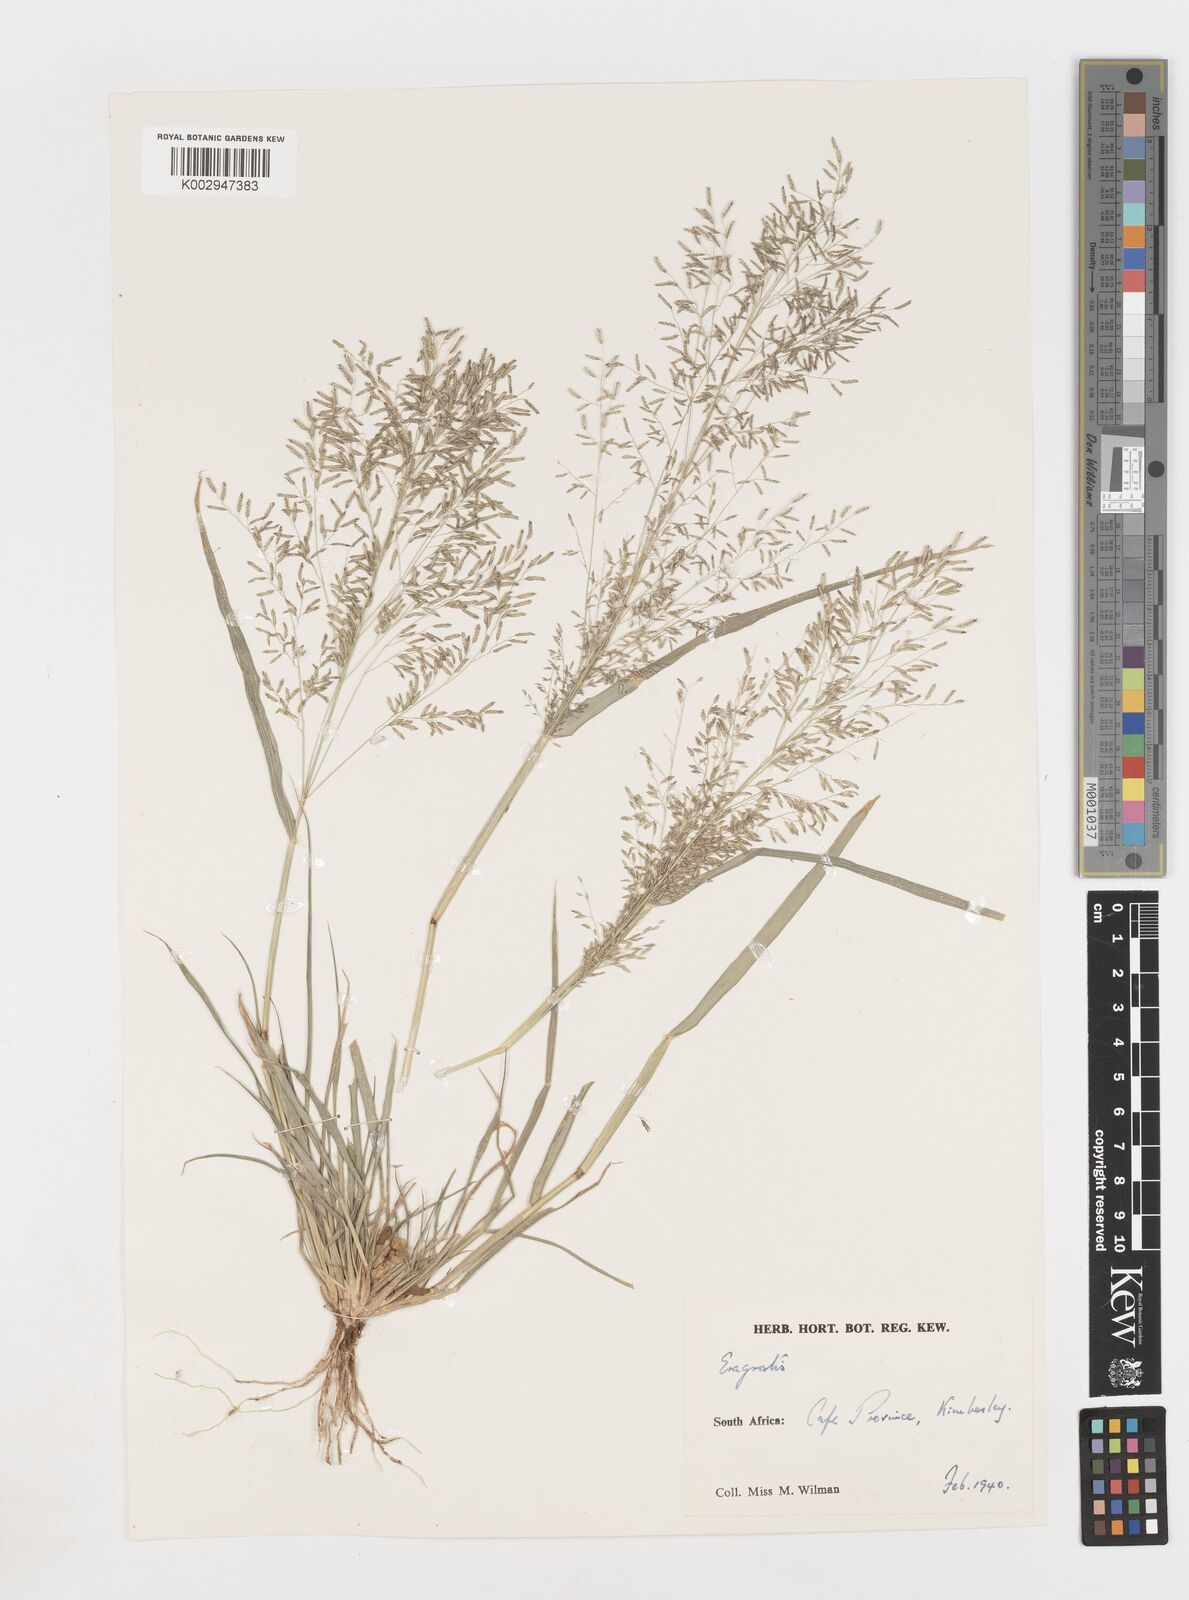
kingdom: Plantae
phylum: Tracheophyta
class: Liliopsida
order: Poales
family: Poaceae
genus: Eragrostis
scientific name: Eragrostis
